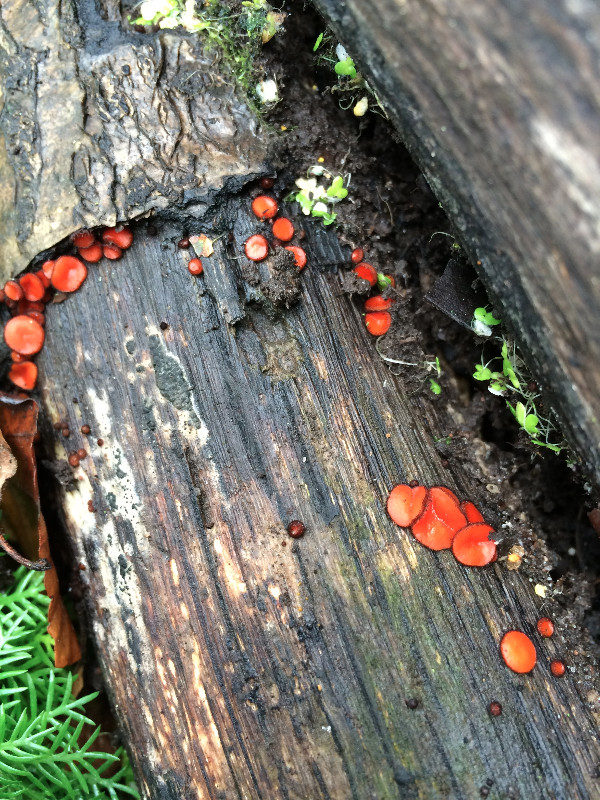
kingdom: Fungi
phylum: Ascomycota
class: Pezizomycetes
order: Pezizales
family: Pyronemataceae
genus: Scutellinia
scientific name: Scutellinia scutellata
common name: frynset skjoldbæger
